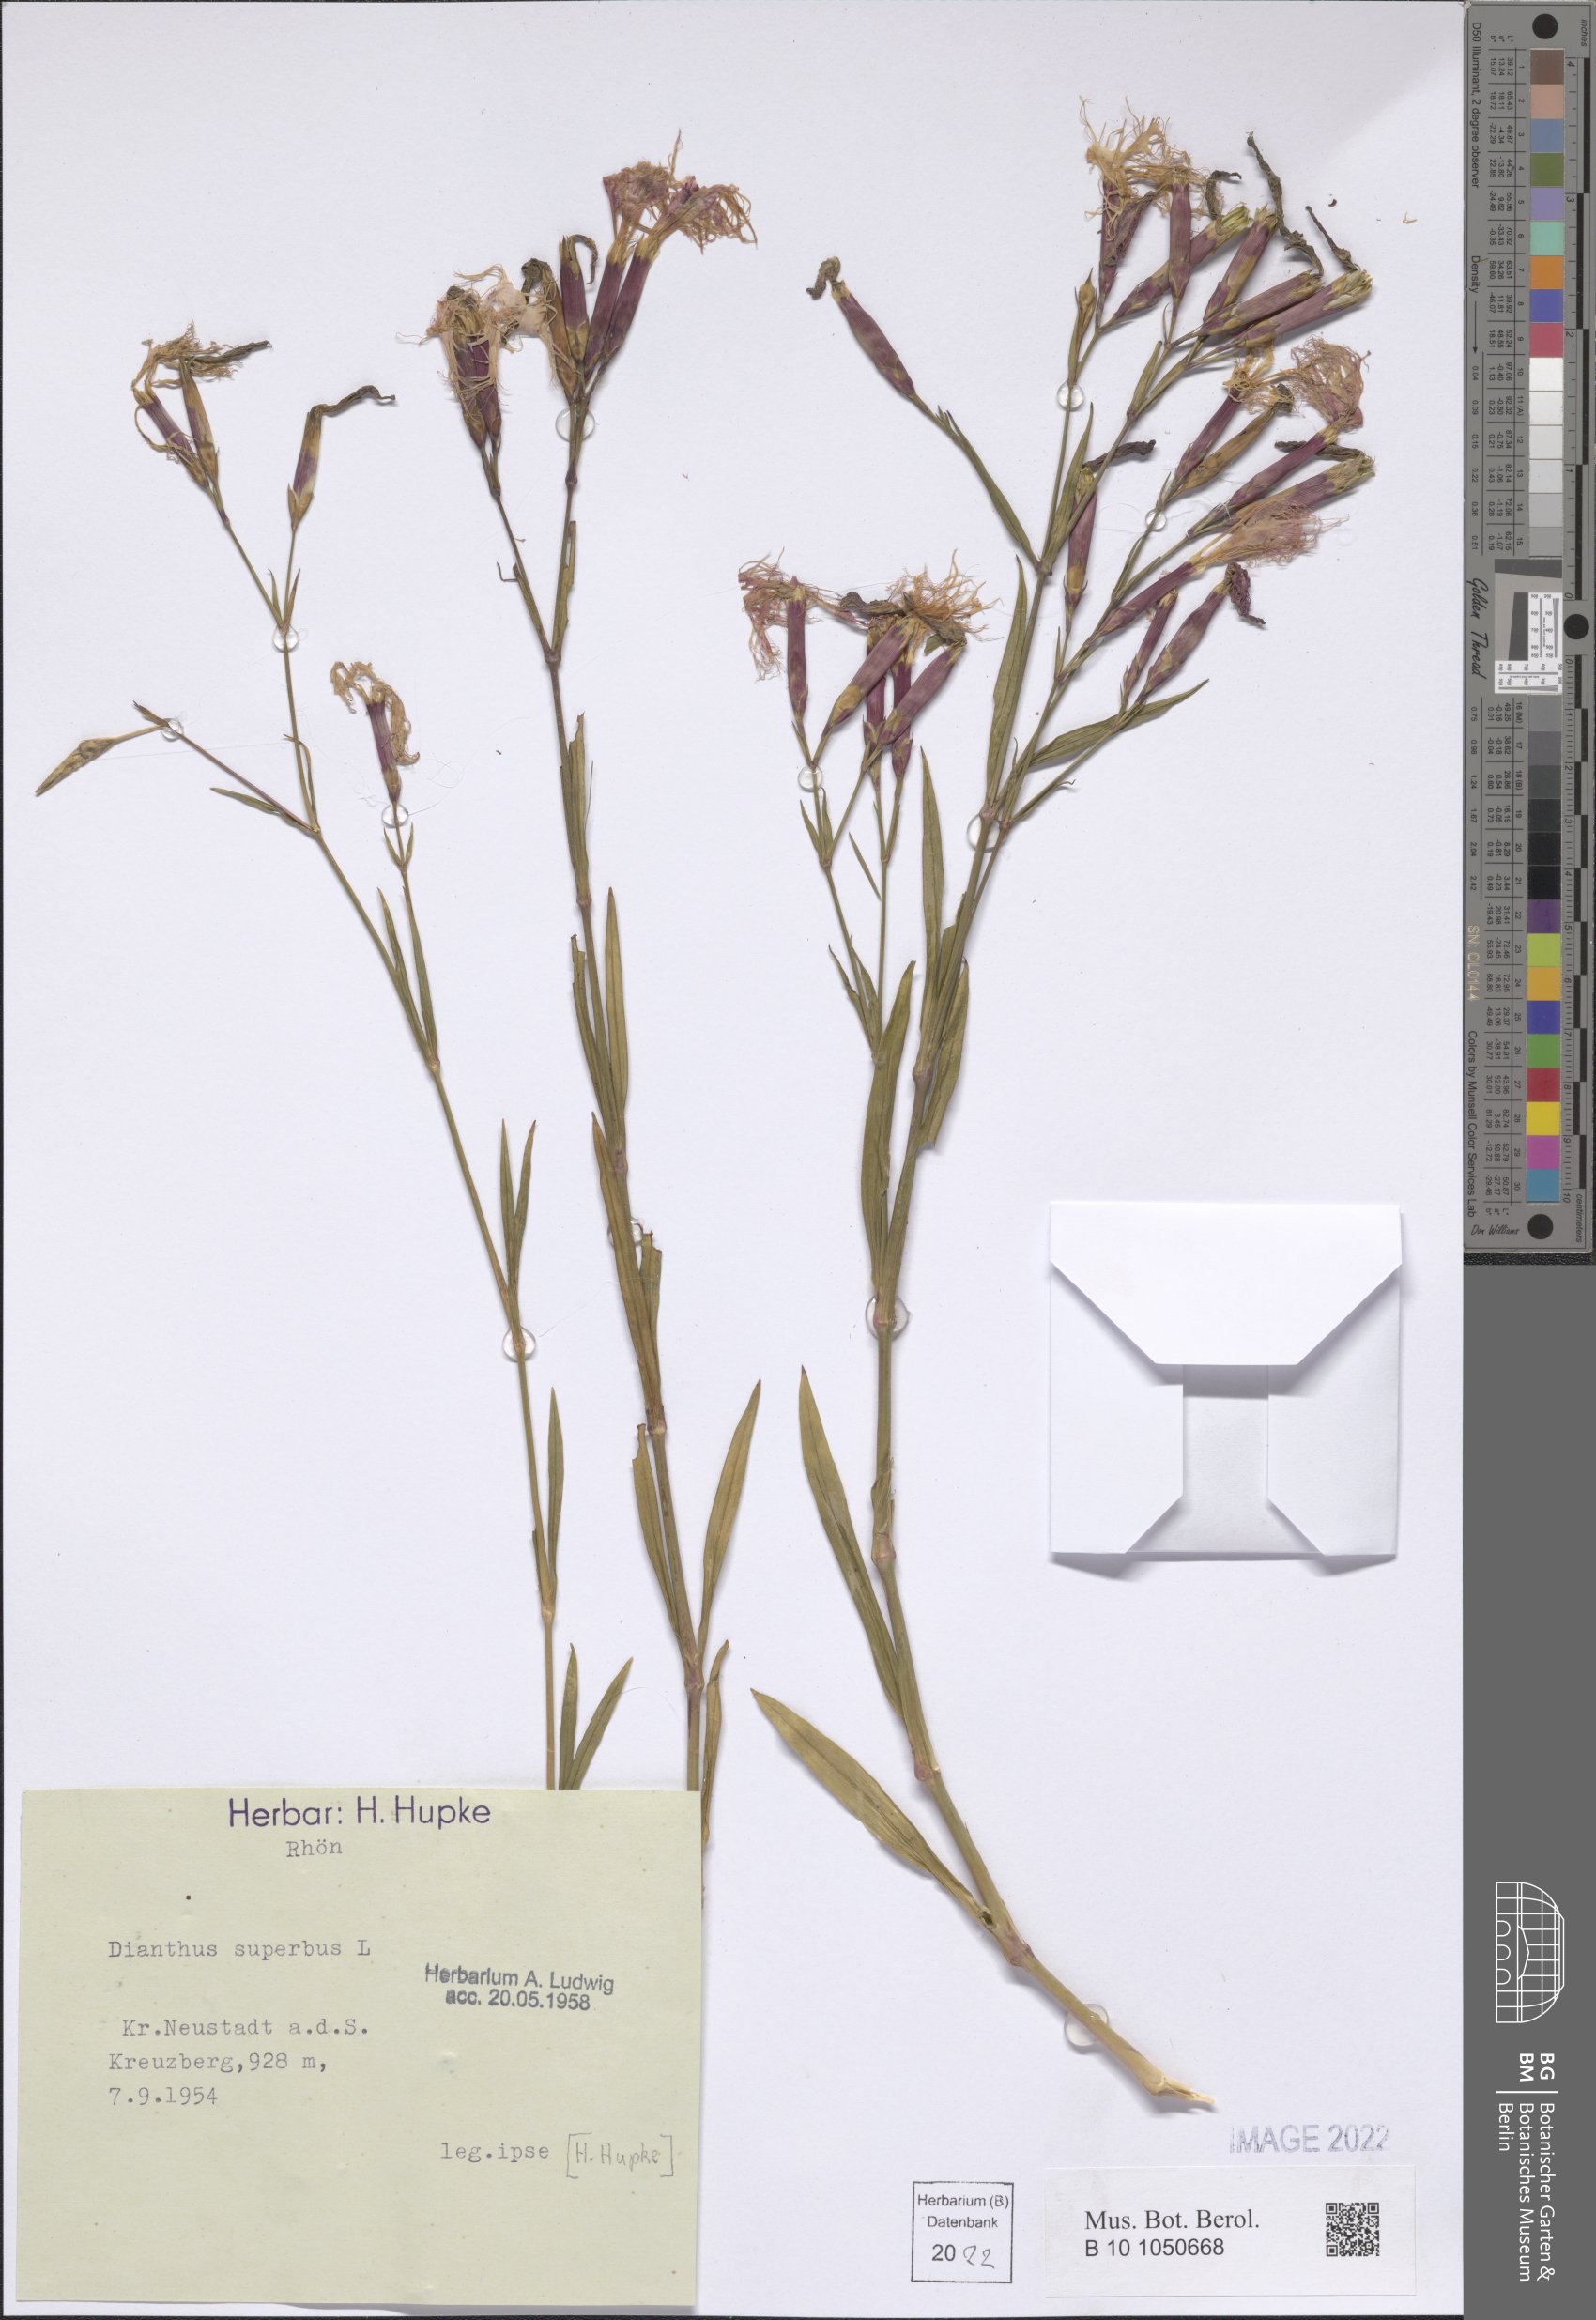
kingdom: Plantae
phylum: Tracheophyta
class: Magnoliopsida
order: Caryophyllales
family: Caryophyllaceae
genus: Dianthus
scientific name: Dianthus superbus
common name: Fringed pink
